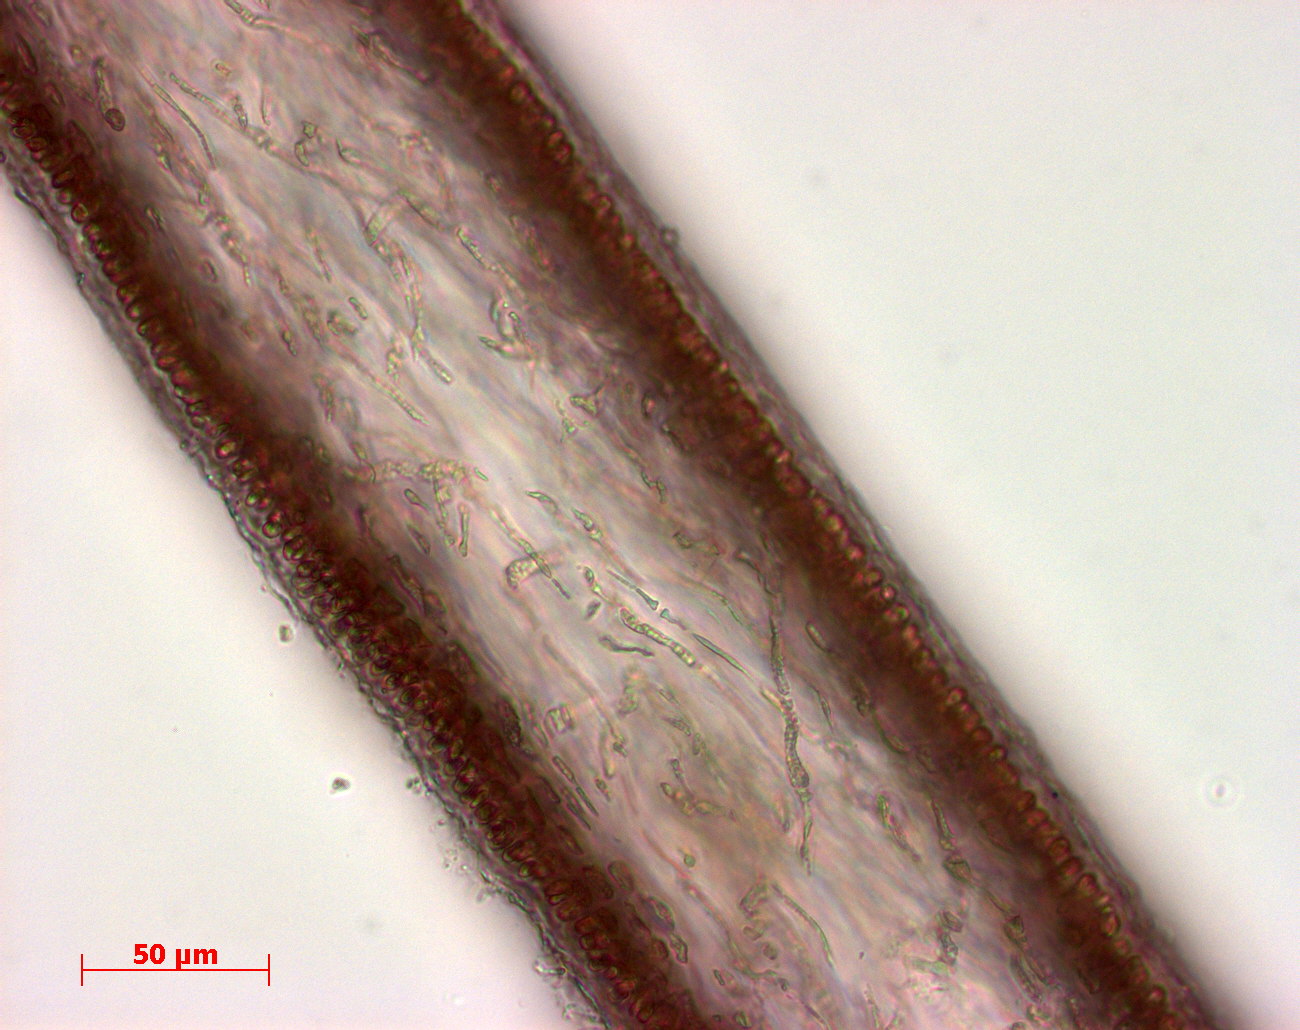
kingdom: Plantae
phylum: Rhodophyta
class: Florideophyceae
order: Halymeniales
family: Halymeniaceae
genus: Cryptonemia
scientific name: Cryptonemia latissima
